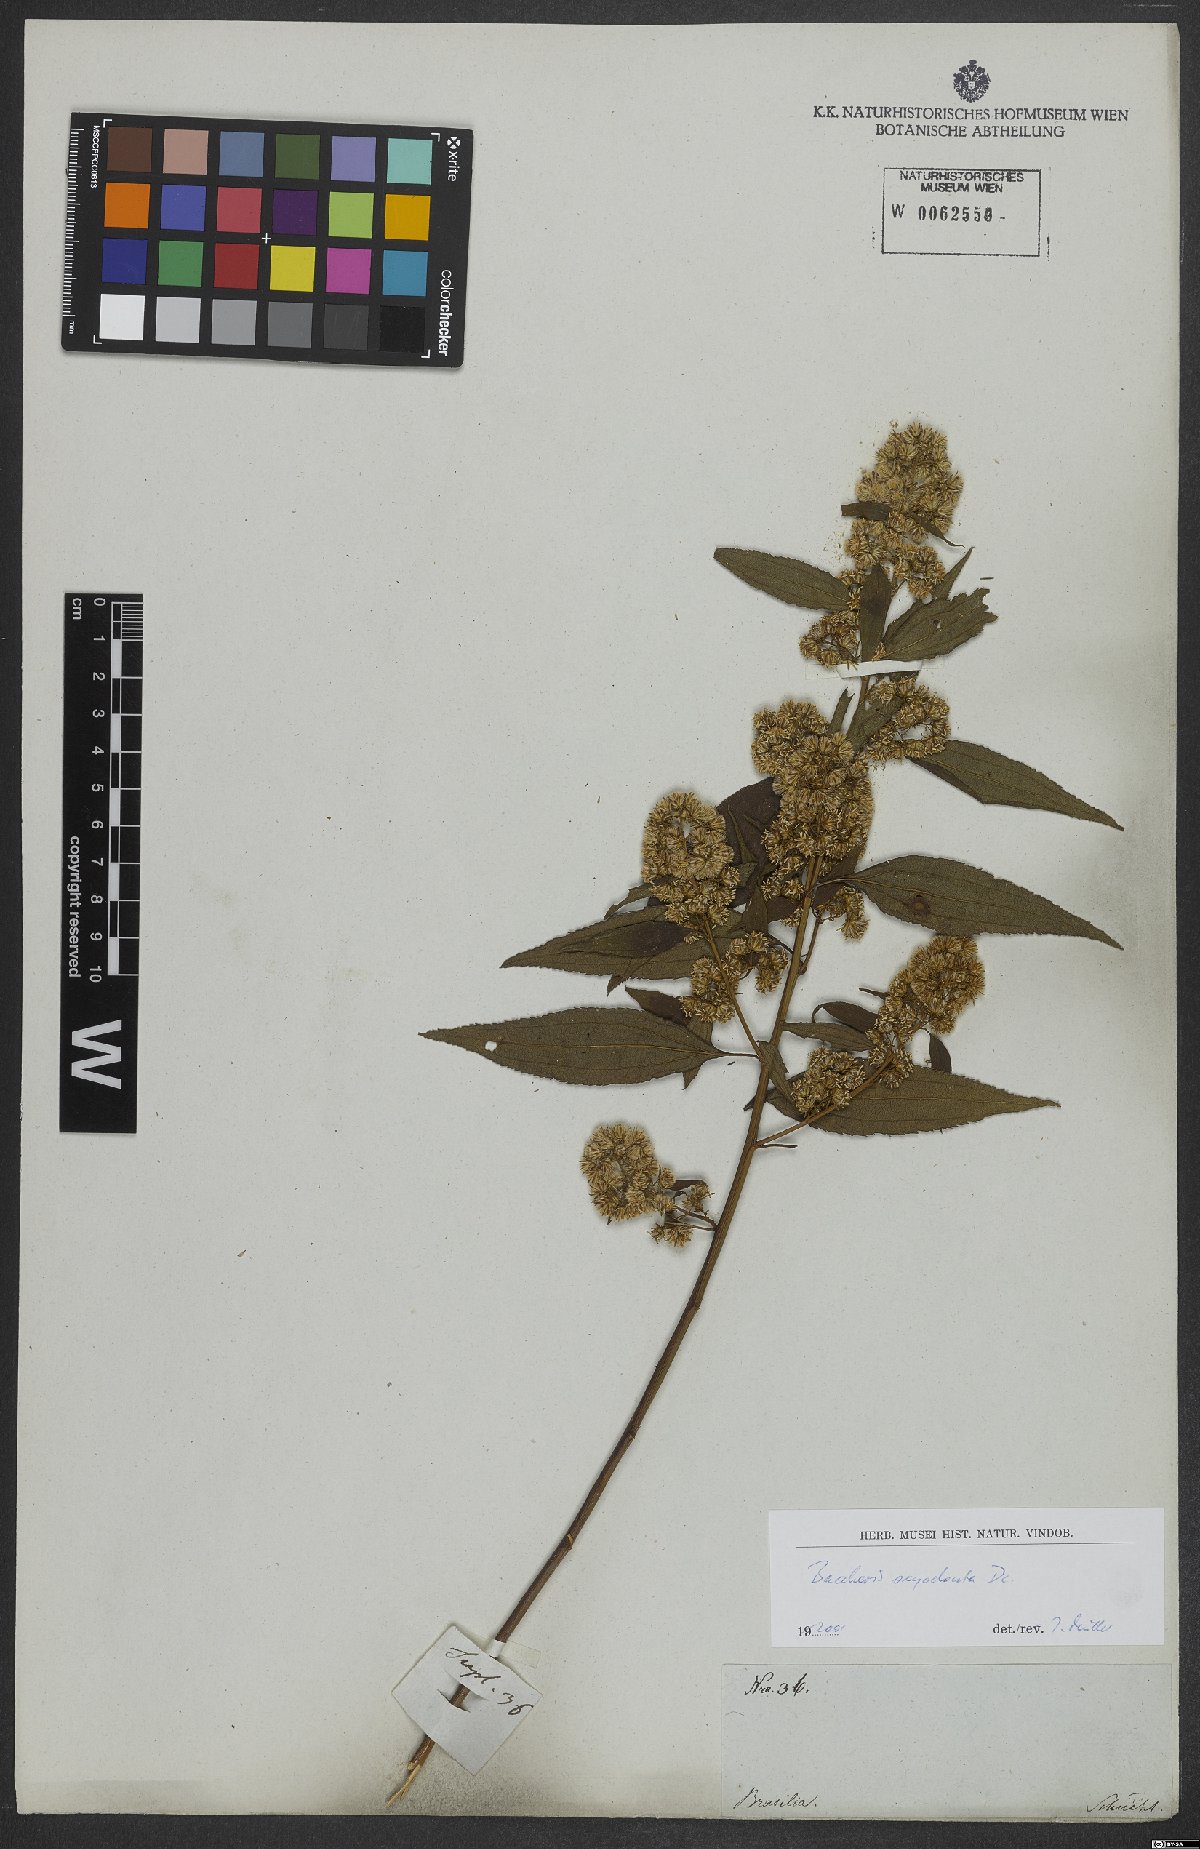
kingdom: Plantae
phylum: Tracheophyta
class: Magnoliopsida
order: Asterales
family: Asteraceae
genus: Baccharis
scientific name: Baccharis oxyodonta
